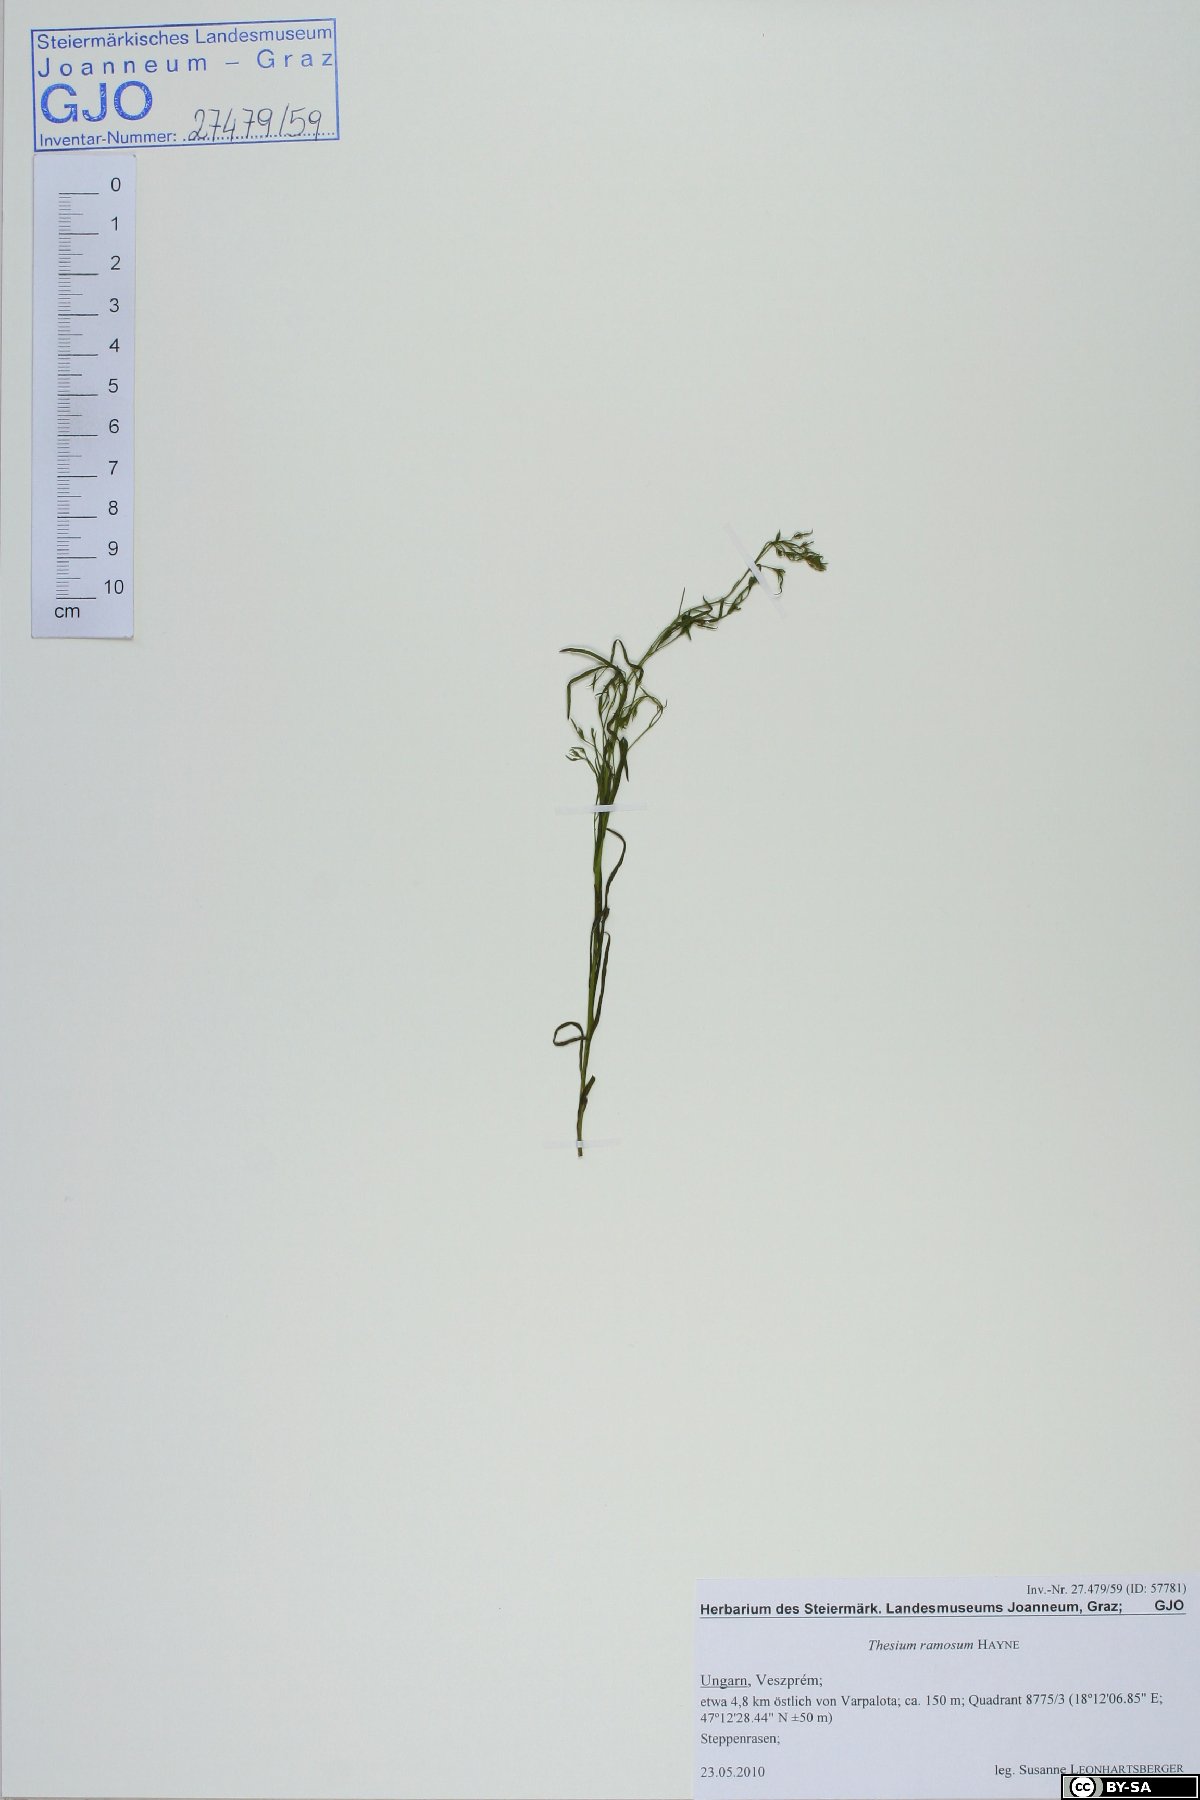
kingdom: Plantae
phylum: Tracheophyta
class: Magnoliopsida
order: Santalales
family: Thesiaceae
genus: Thesium
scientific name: Thesium ramosum
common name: Field thesium
